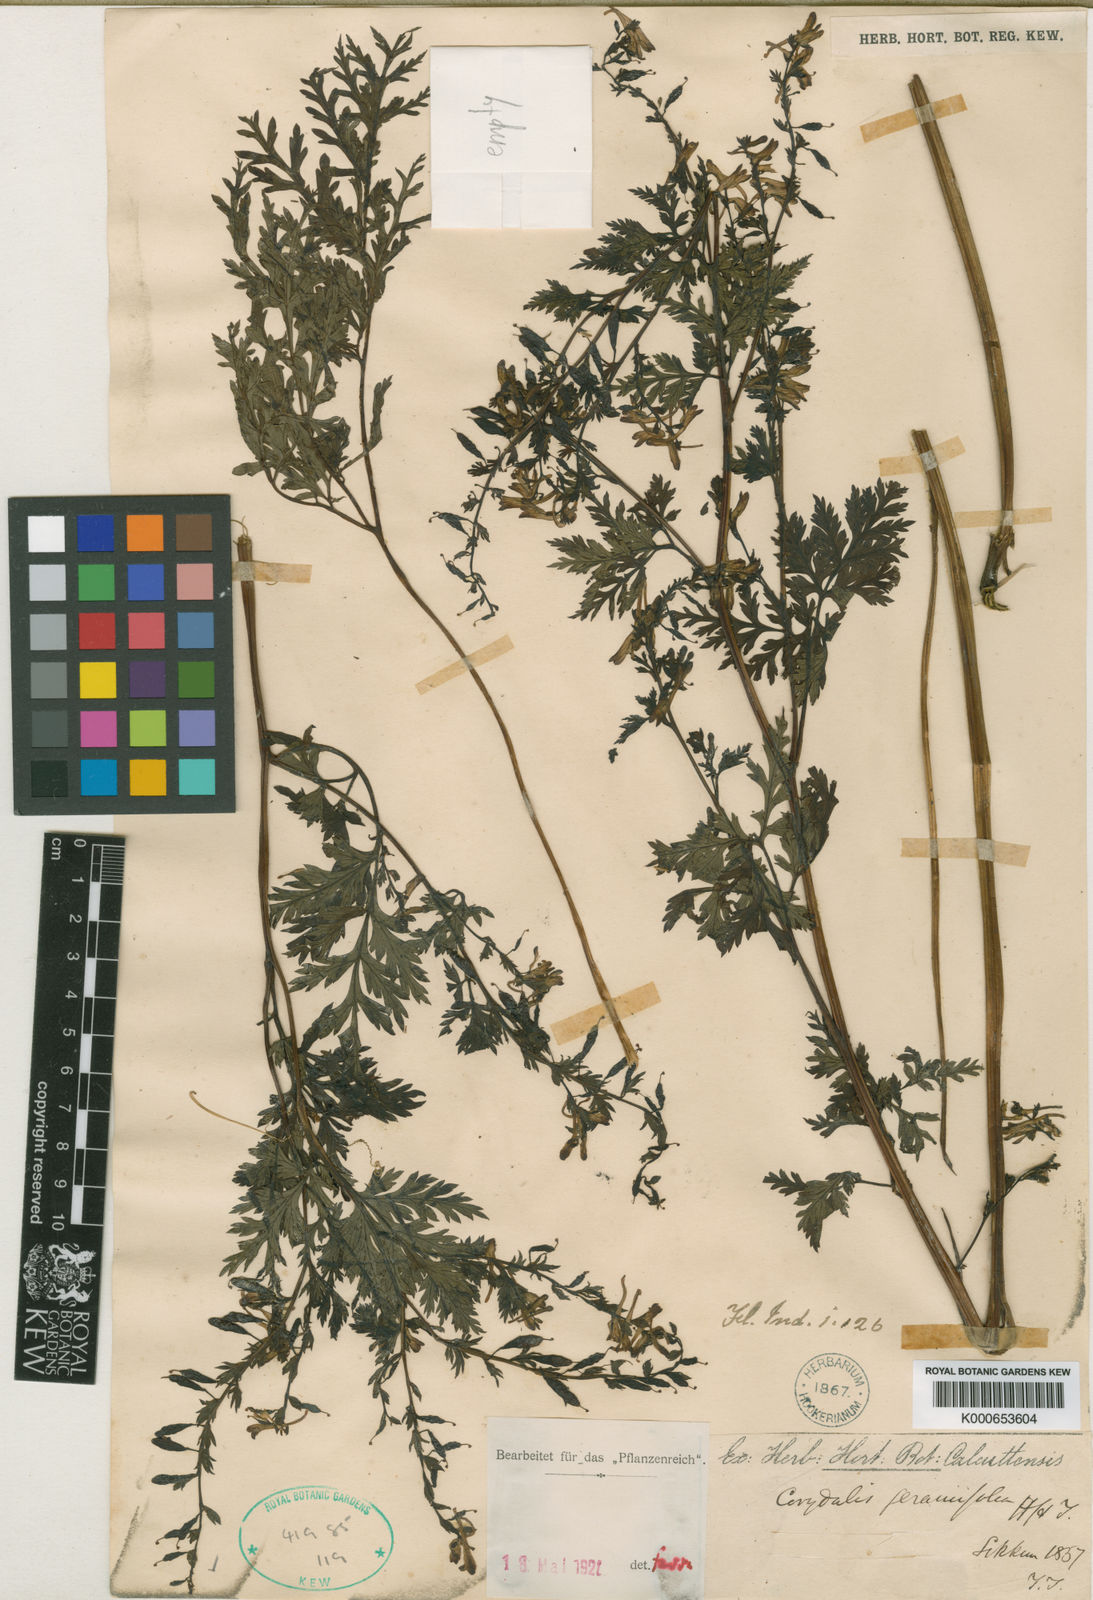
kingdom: Plantae
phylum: Tracheophyta
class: Magnoliopsida
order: Ranunculales
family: Papaveraceae
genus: Corydalis
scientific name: Corydalis geraniifolia
